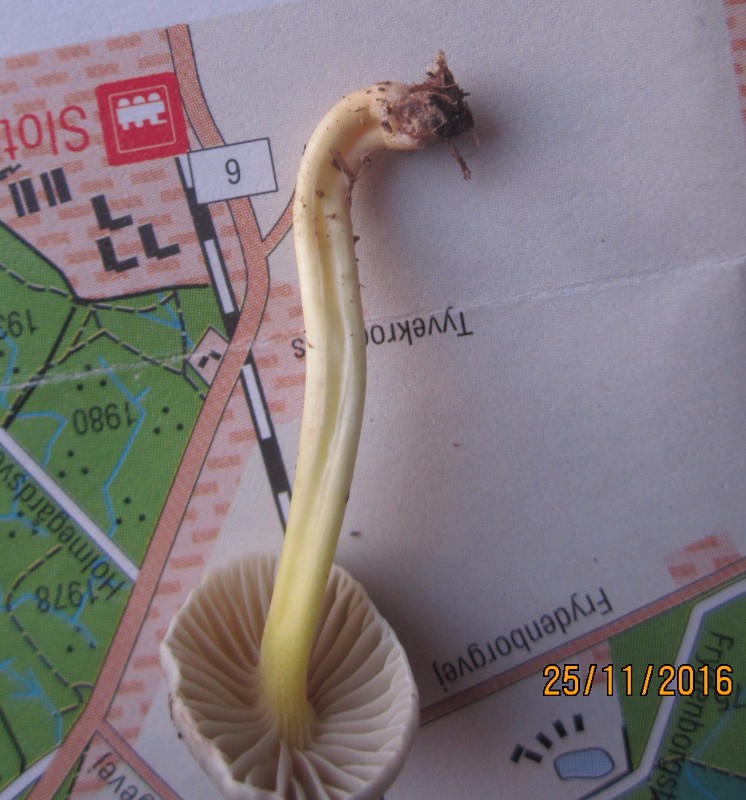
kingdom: Fungi
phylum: Basidiomycota
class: Agaricomycetes
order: Agaricales
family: Mycenaceae
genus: Mycena
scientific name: Mycena epipterygia
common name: gulstokket huesvamp
